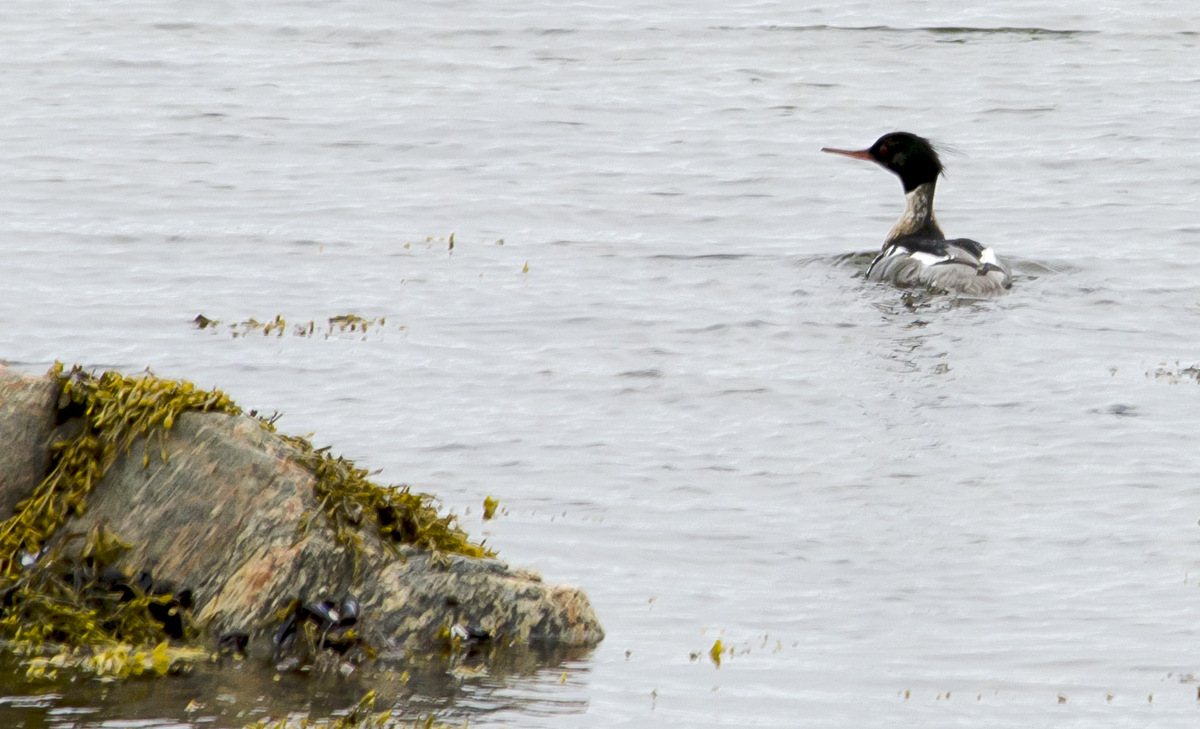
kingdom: Animalia
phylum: Chordata
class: Aves
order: Anseriformes
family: Anatidae
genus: Mergus
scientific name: Mergus serrator
